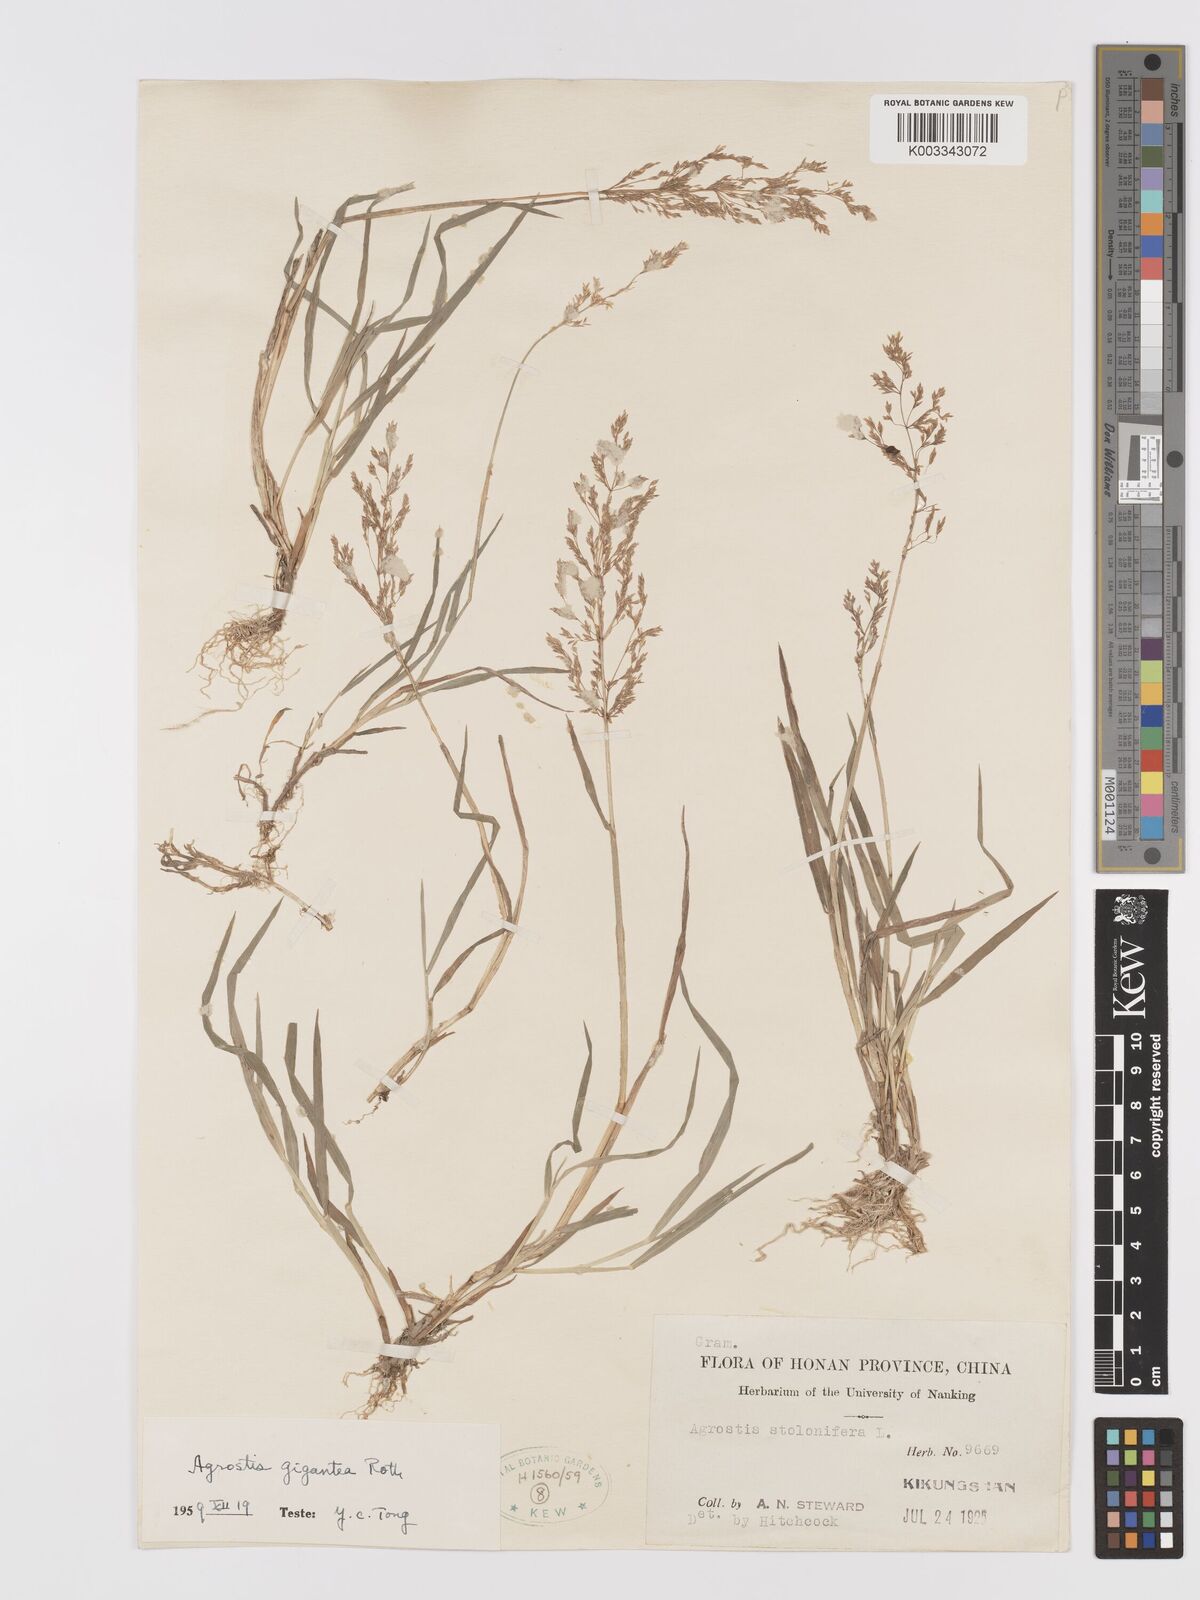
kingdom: Plantae
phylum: Tracheophyta
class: Liliopsida
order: Poales
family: Poaceae
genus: Agrostis
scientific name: Agrostis gigantea
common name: Black bent
